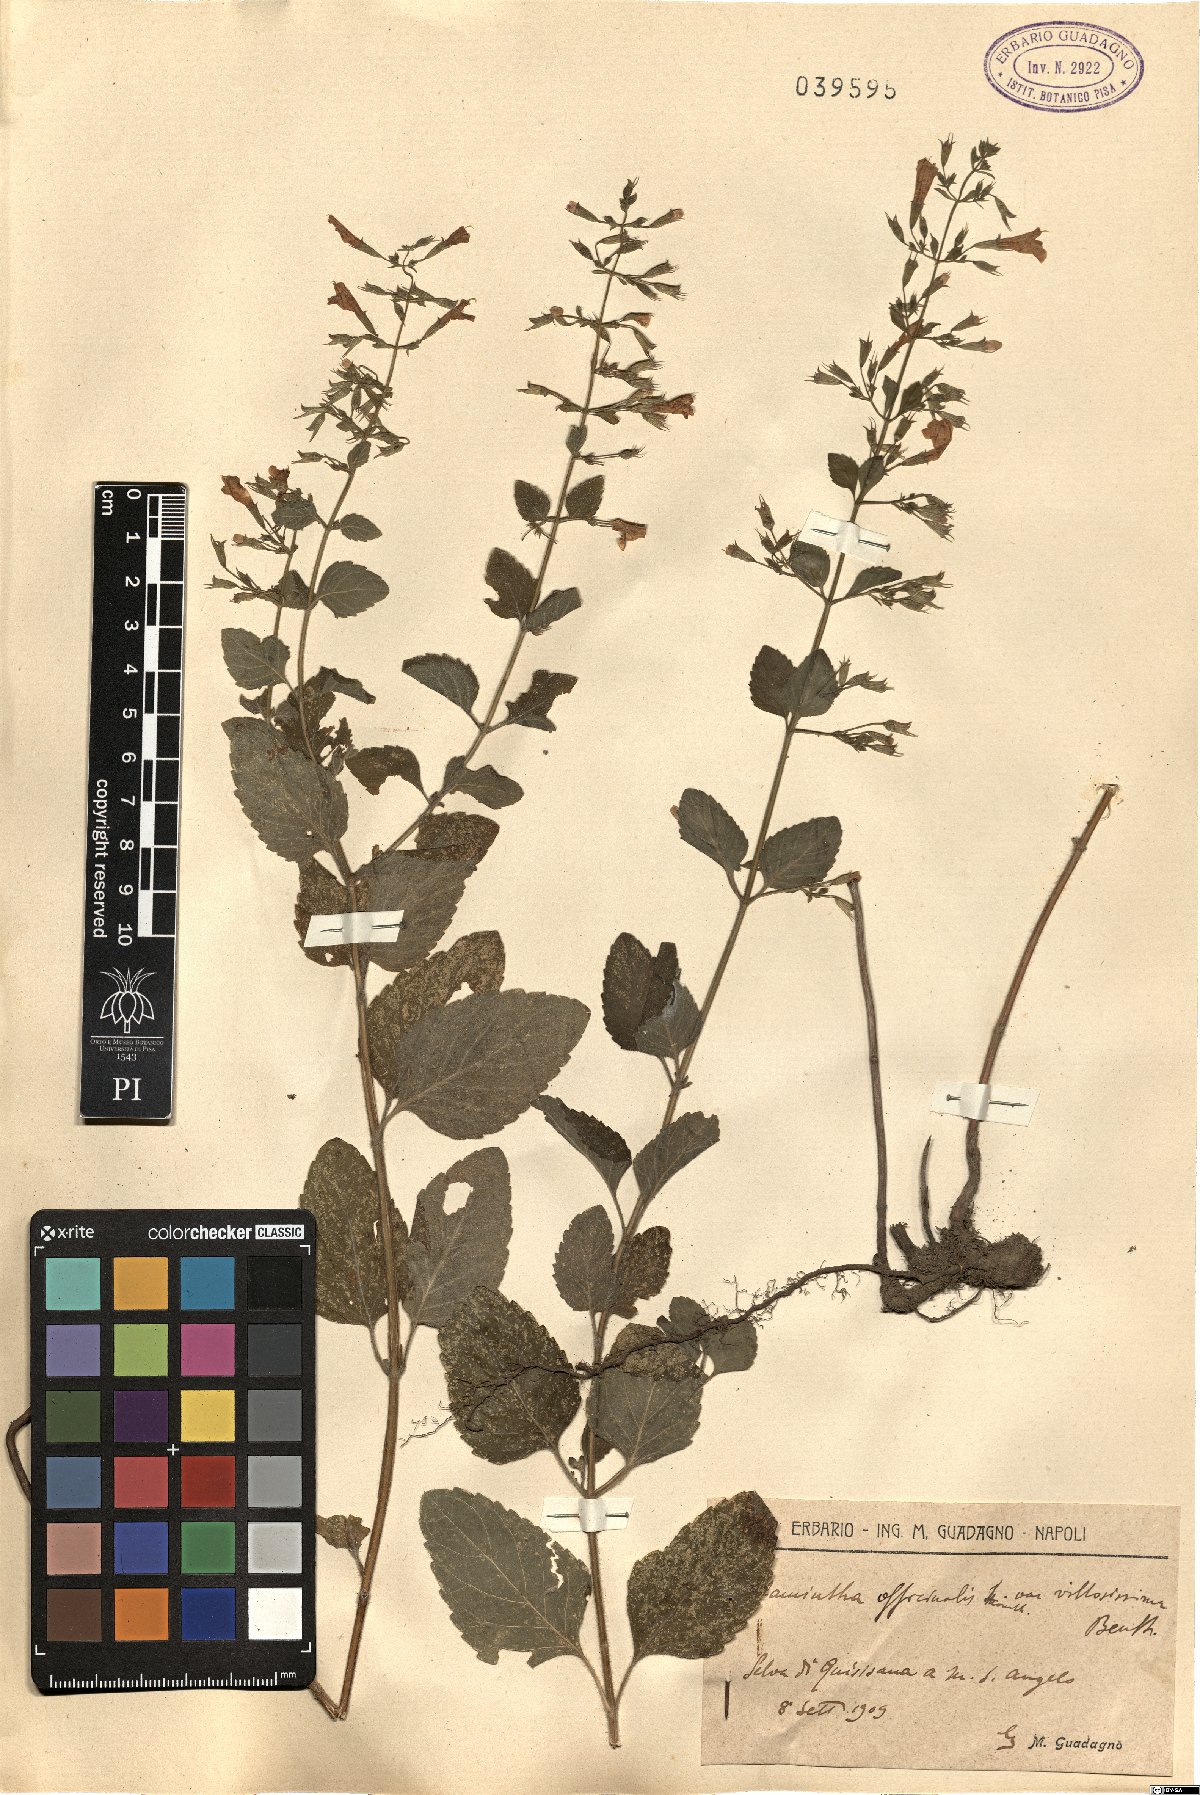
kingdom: Plantae
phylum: Tracheophyta
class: Magnoliopsida
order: Lamiales
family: Lamiaceae
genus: Clinopodium
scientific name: Clinopodium nepeta
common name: Lesser calamint
